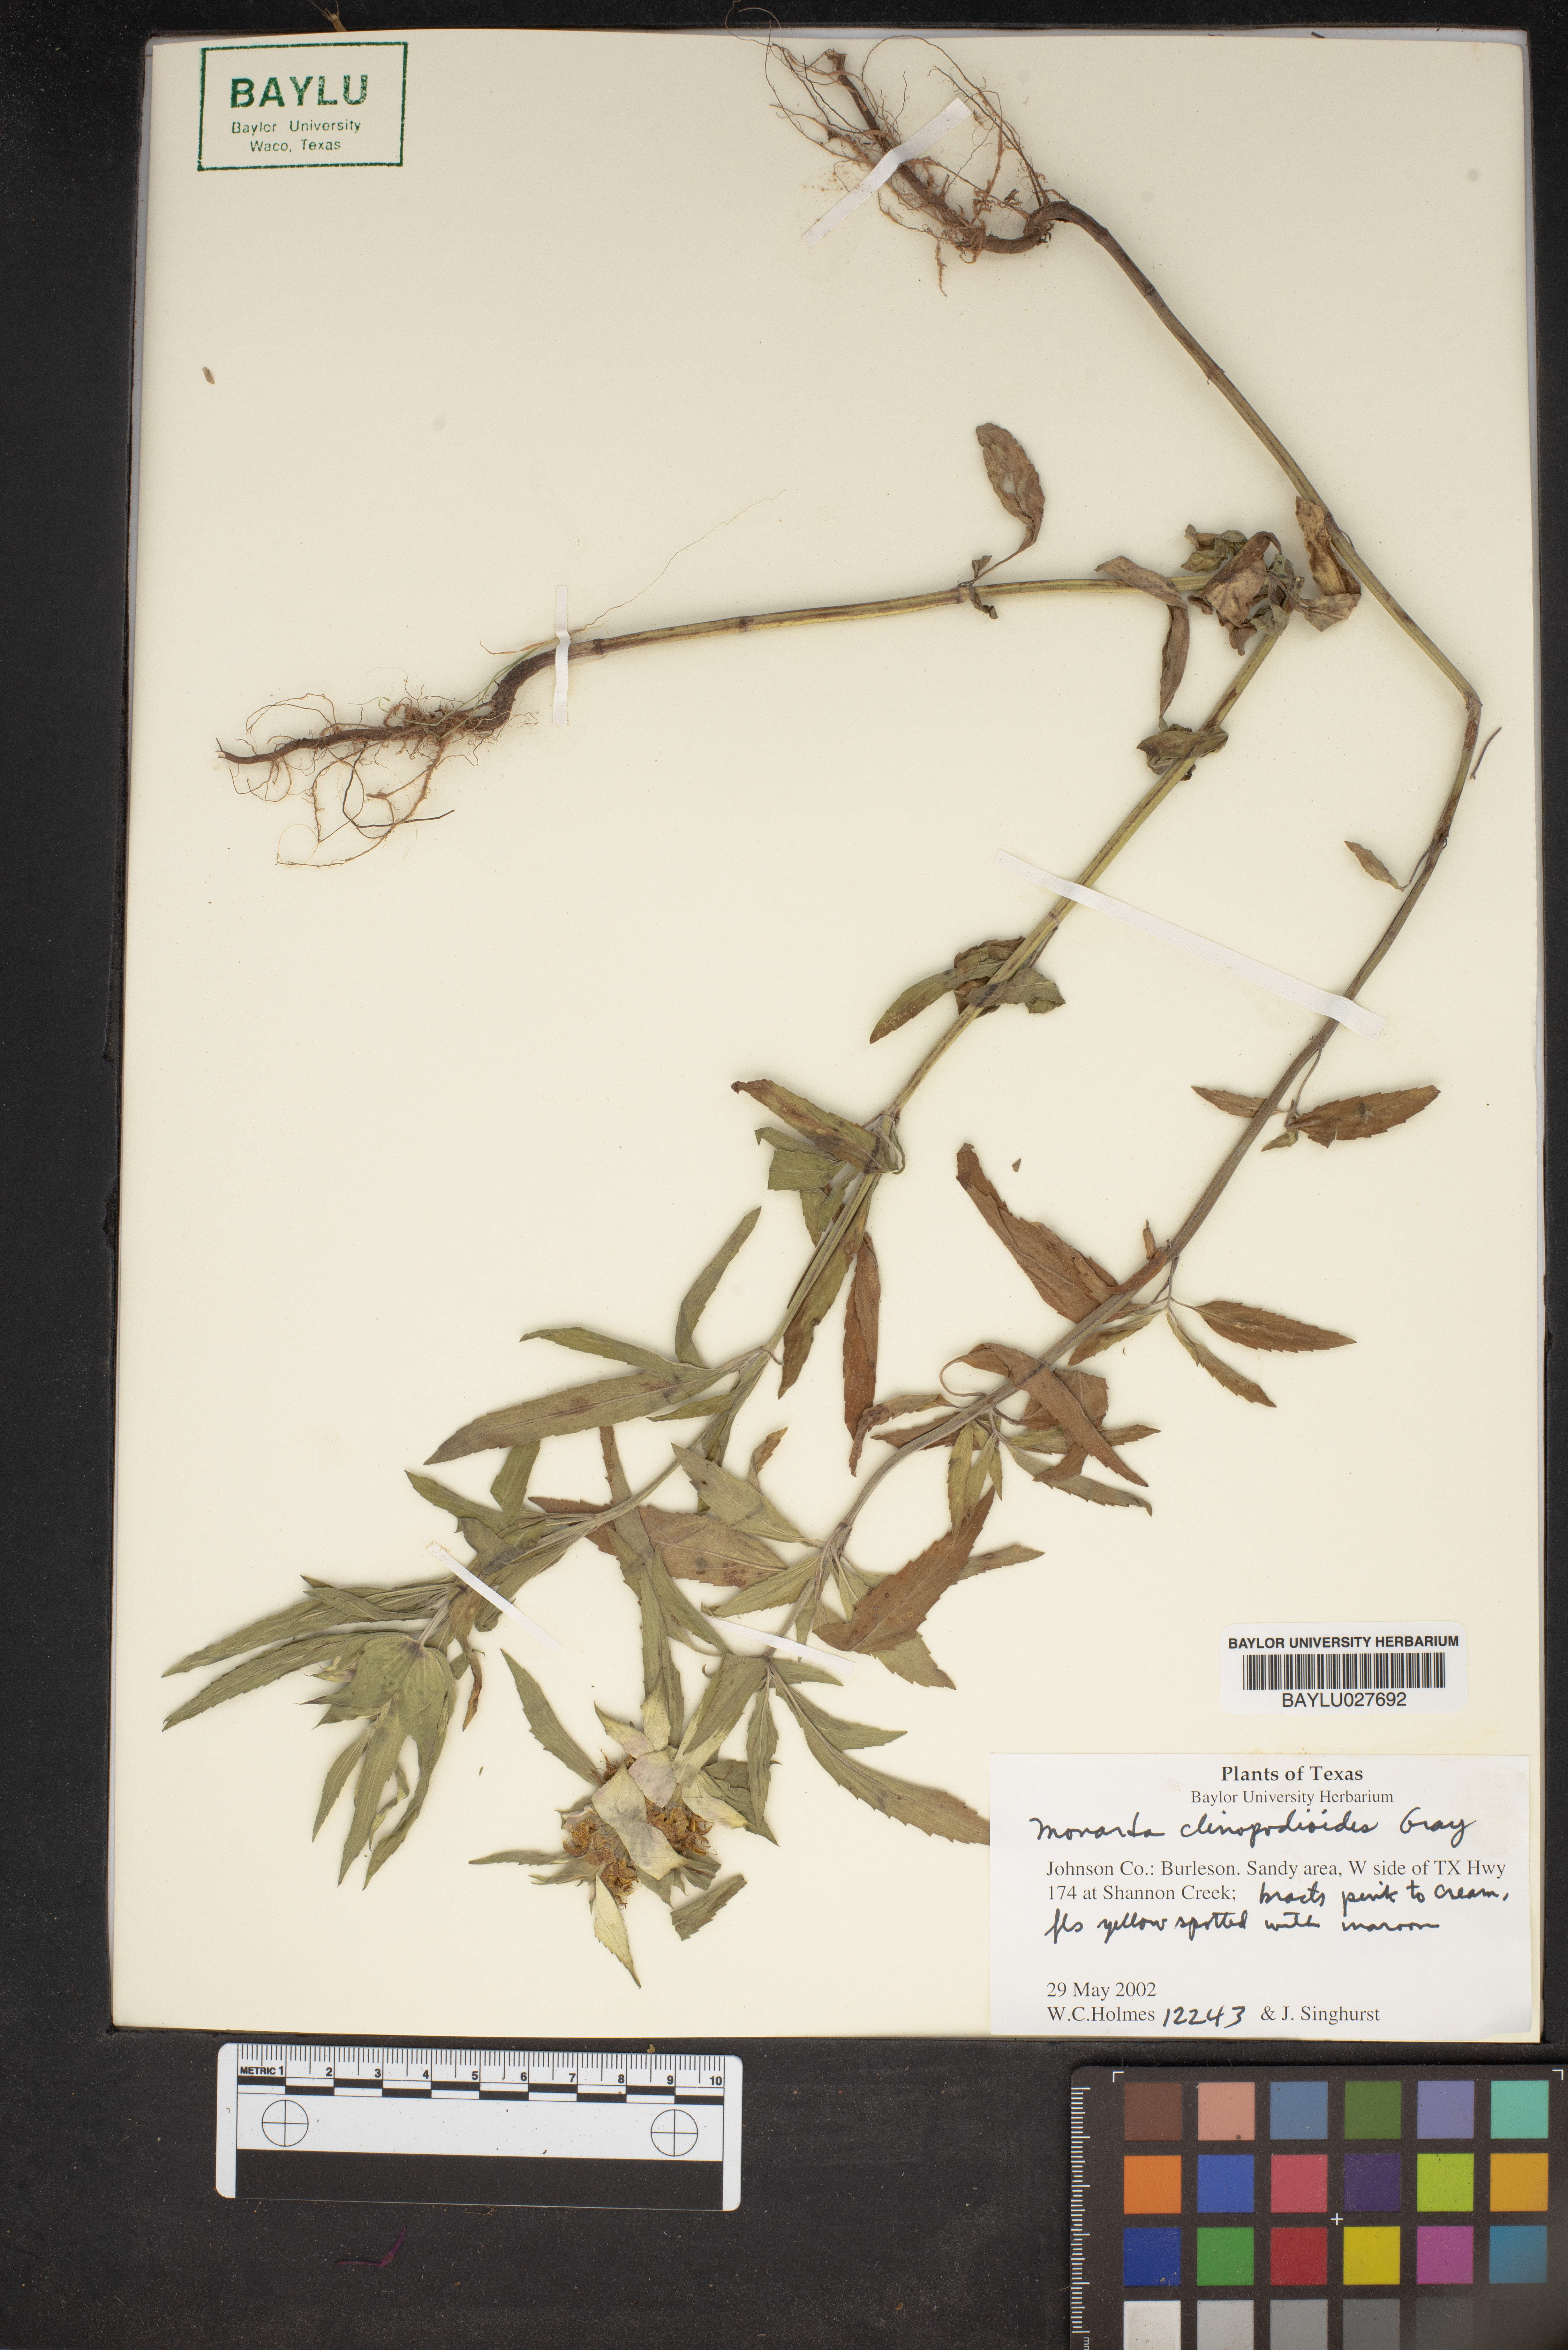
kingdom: Plantae
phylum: Tracheophyta
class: Magnoliopsida
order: Lamiales
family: Lamiaceae
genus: Monarda
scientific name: Monarda clinopodioides
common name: Basil beebalm
